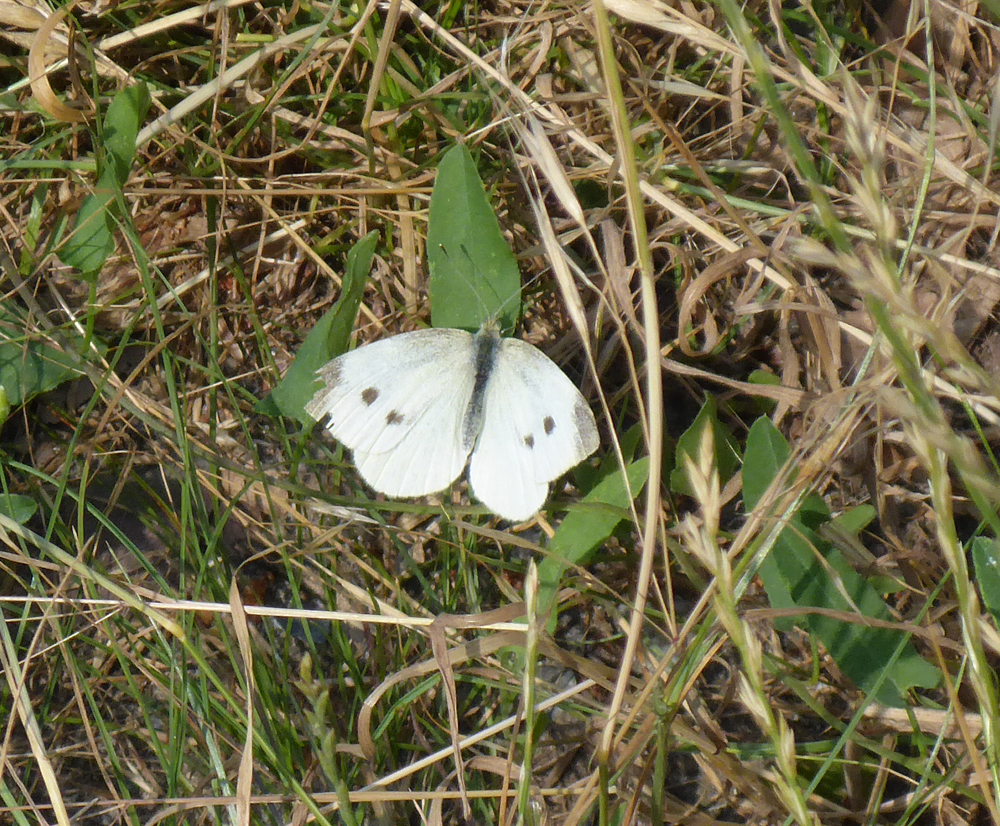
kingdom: Animalia
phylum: Arthropoda
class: Insecta
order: Lepidoptera
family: Pieridae
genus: Pieris
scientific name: Pieris rapae
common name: Small white
